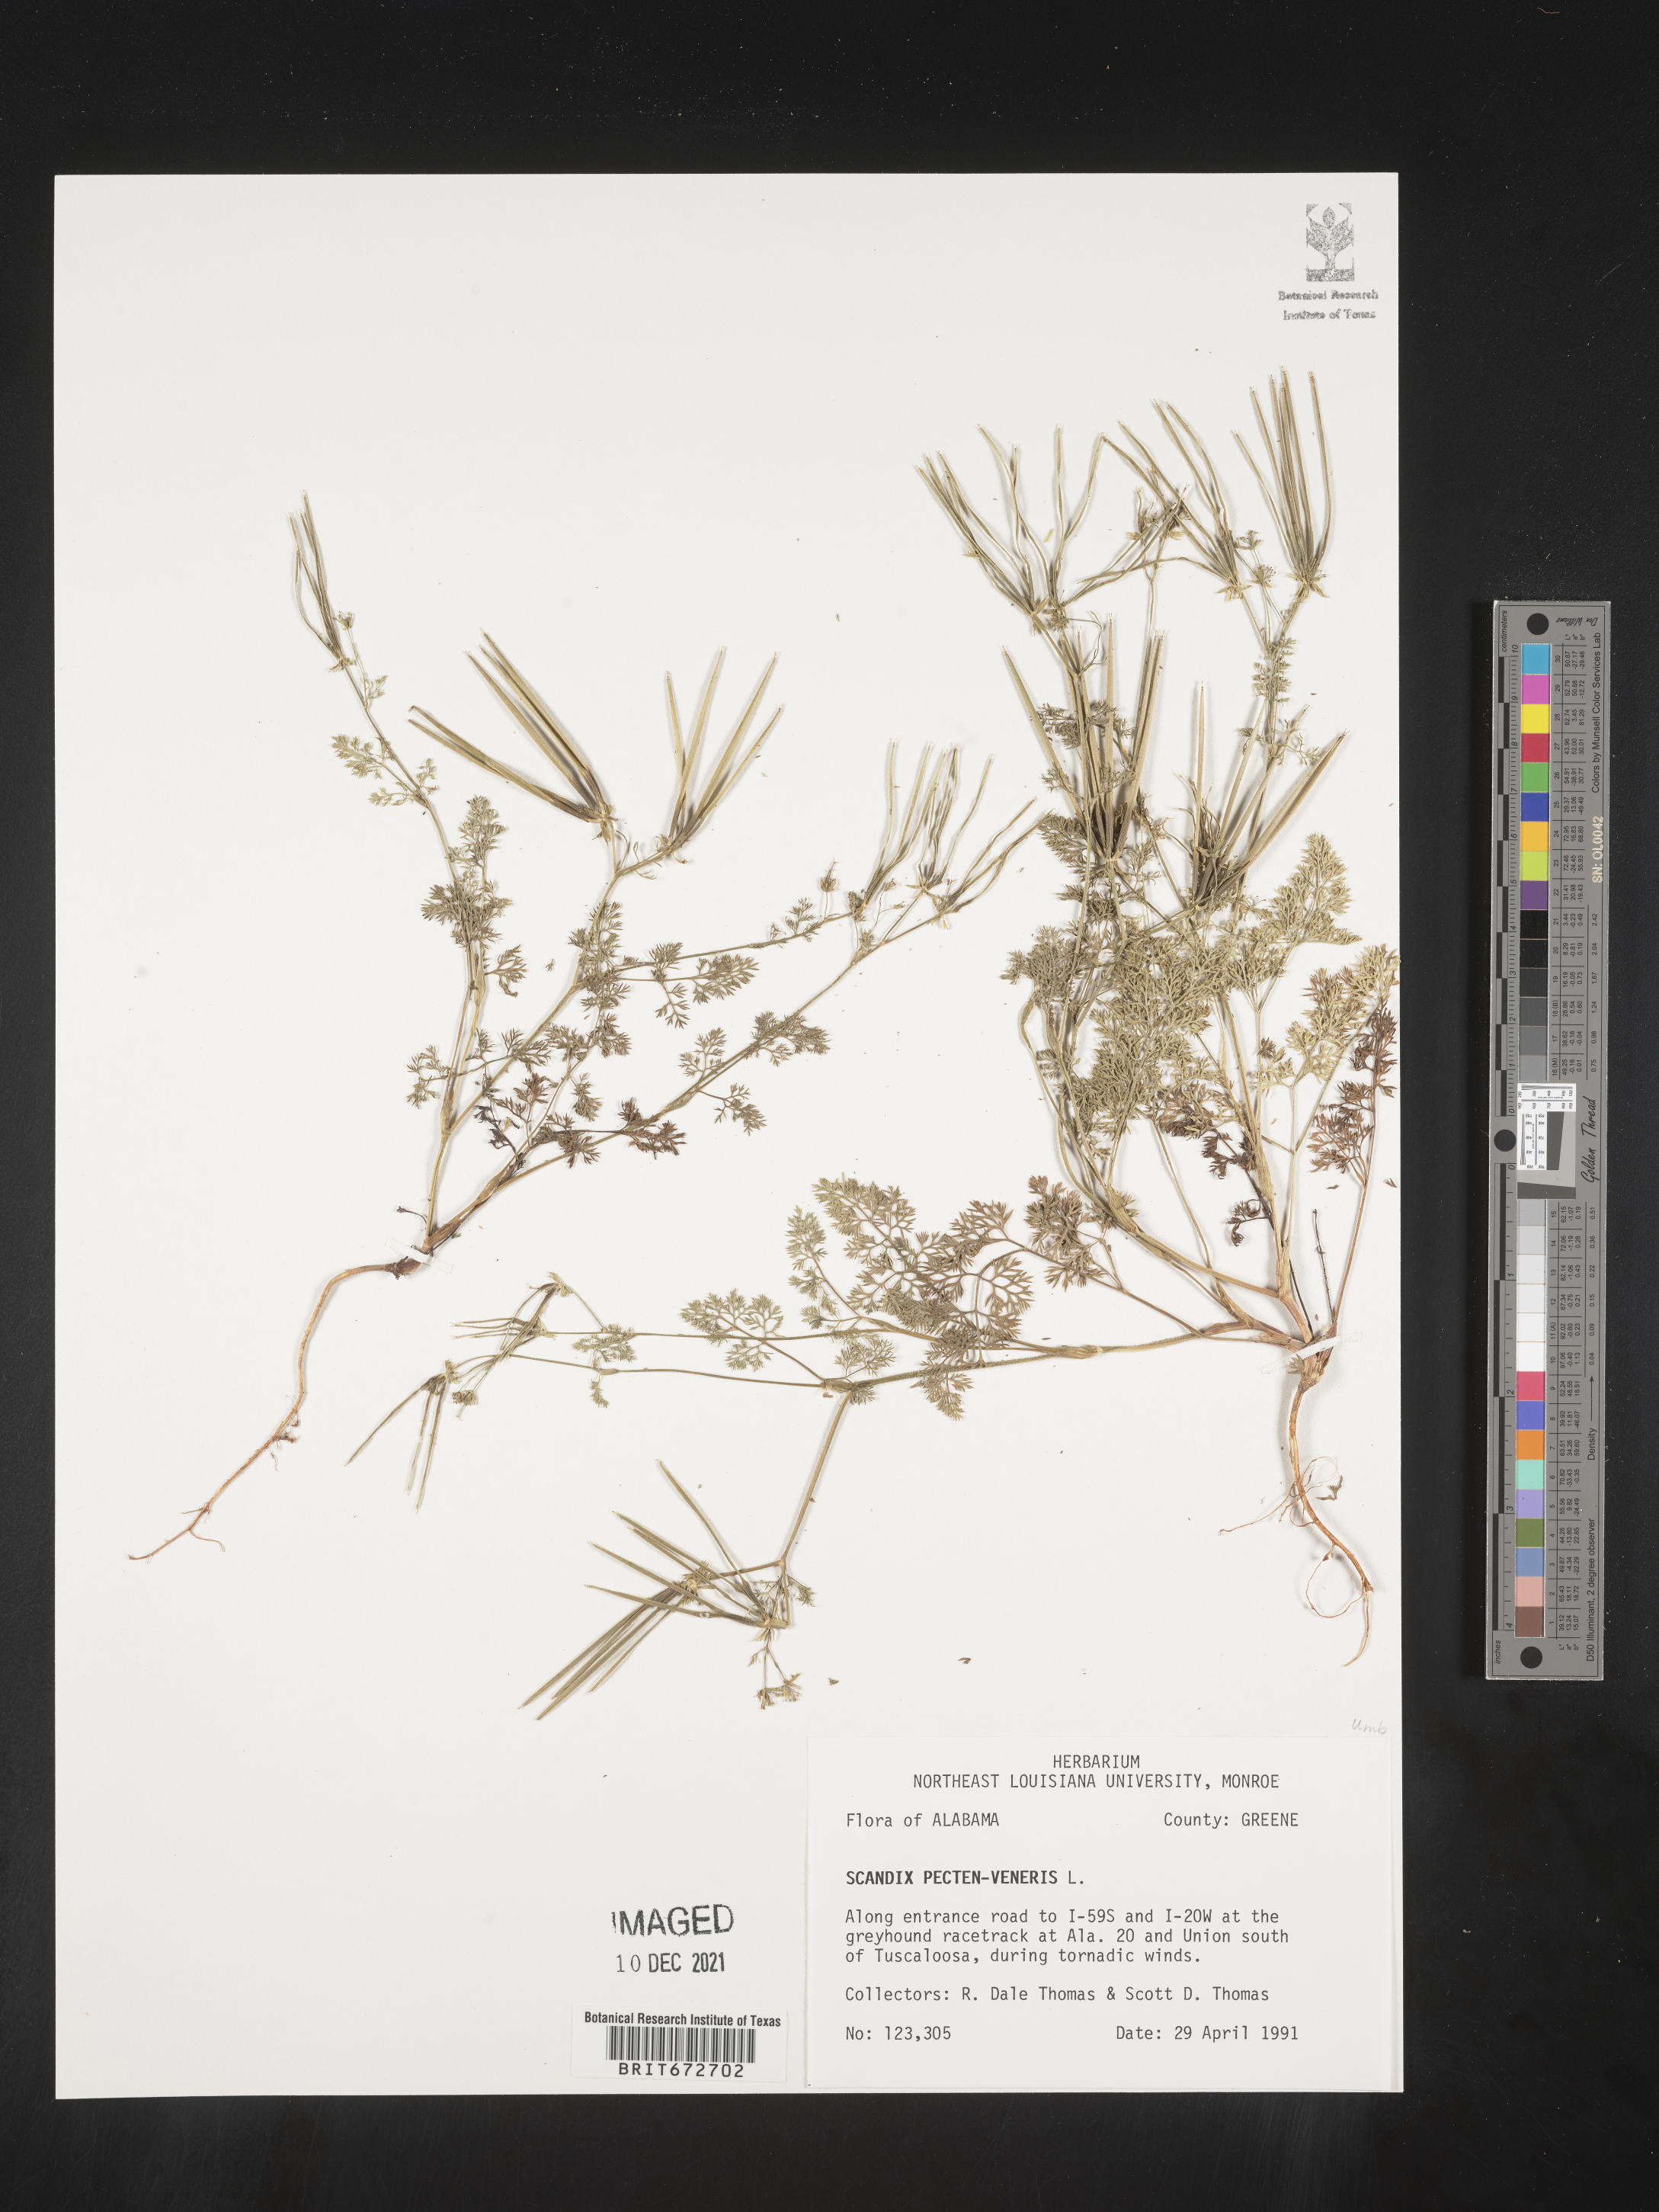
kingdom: Plantae
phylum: Tracheophyta
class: Magnoliopsida
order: Apiales
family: Apiaceae
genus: Scandix
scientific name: Scandix
